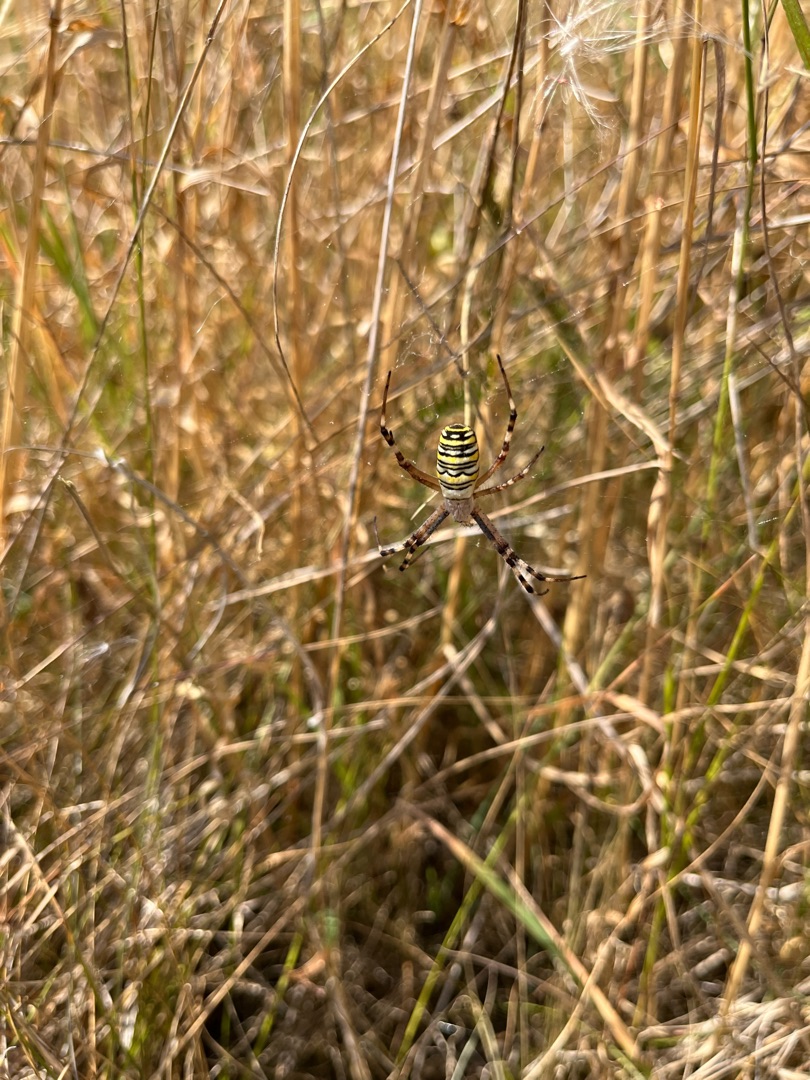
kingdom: Animalia
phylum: Arthropoda
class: Arachnida
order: Araneae
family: Araneidae
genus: Argiope
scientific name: Argiope bruennichi
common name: Hvepseedderkop
